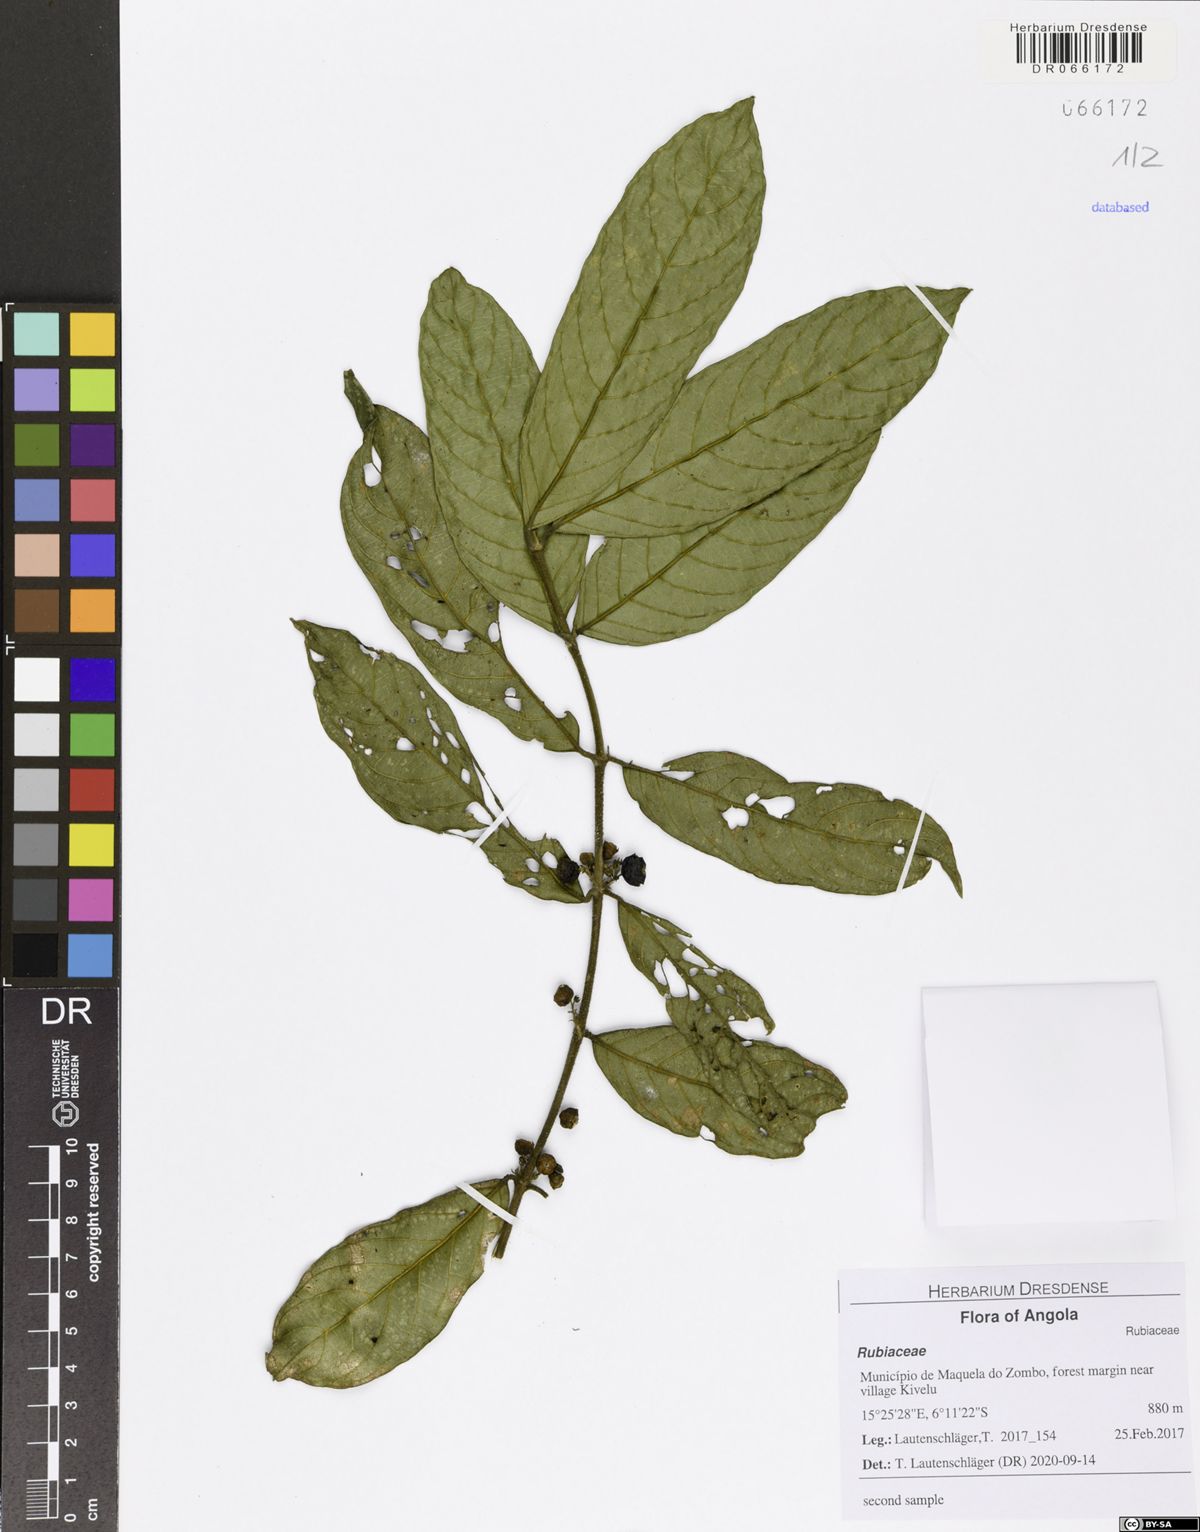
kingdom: Plantae
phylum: Tracheophyta
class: Magnoliopsida
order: Gentianales
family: Rubiaceae
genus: Pauridiantha
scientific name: Pauridiantha mayumbensis
